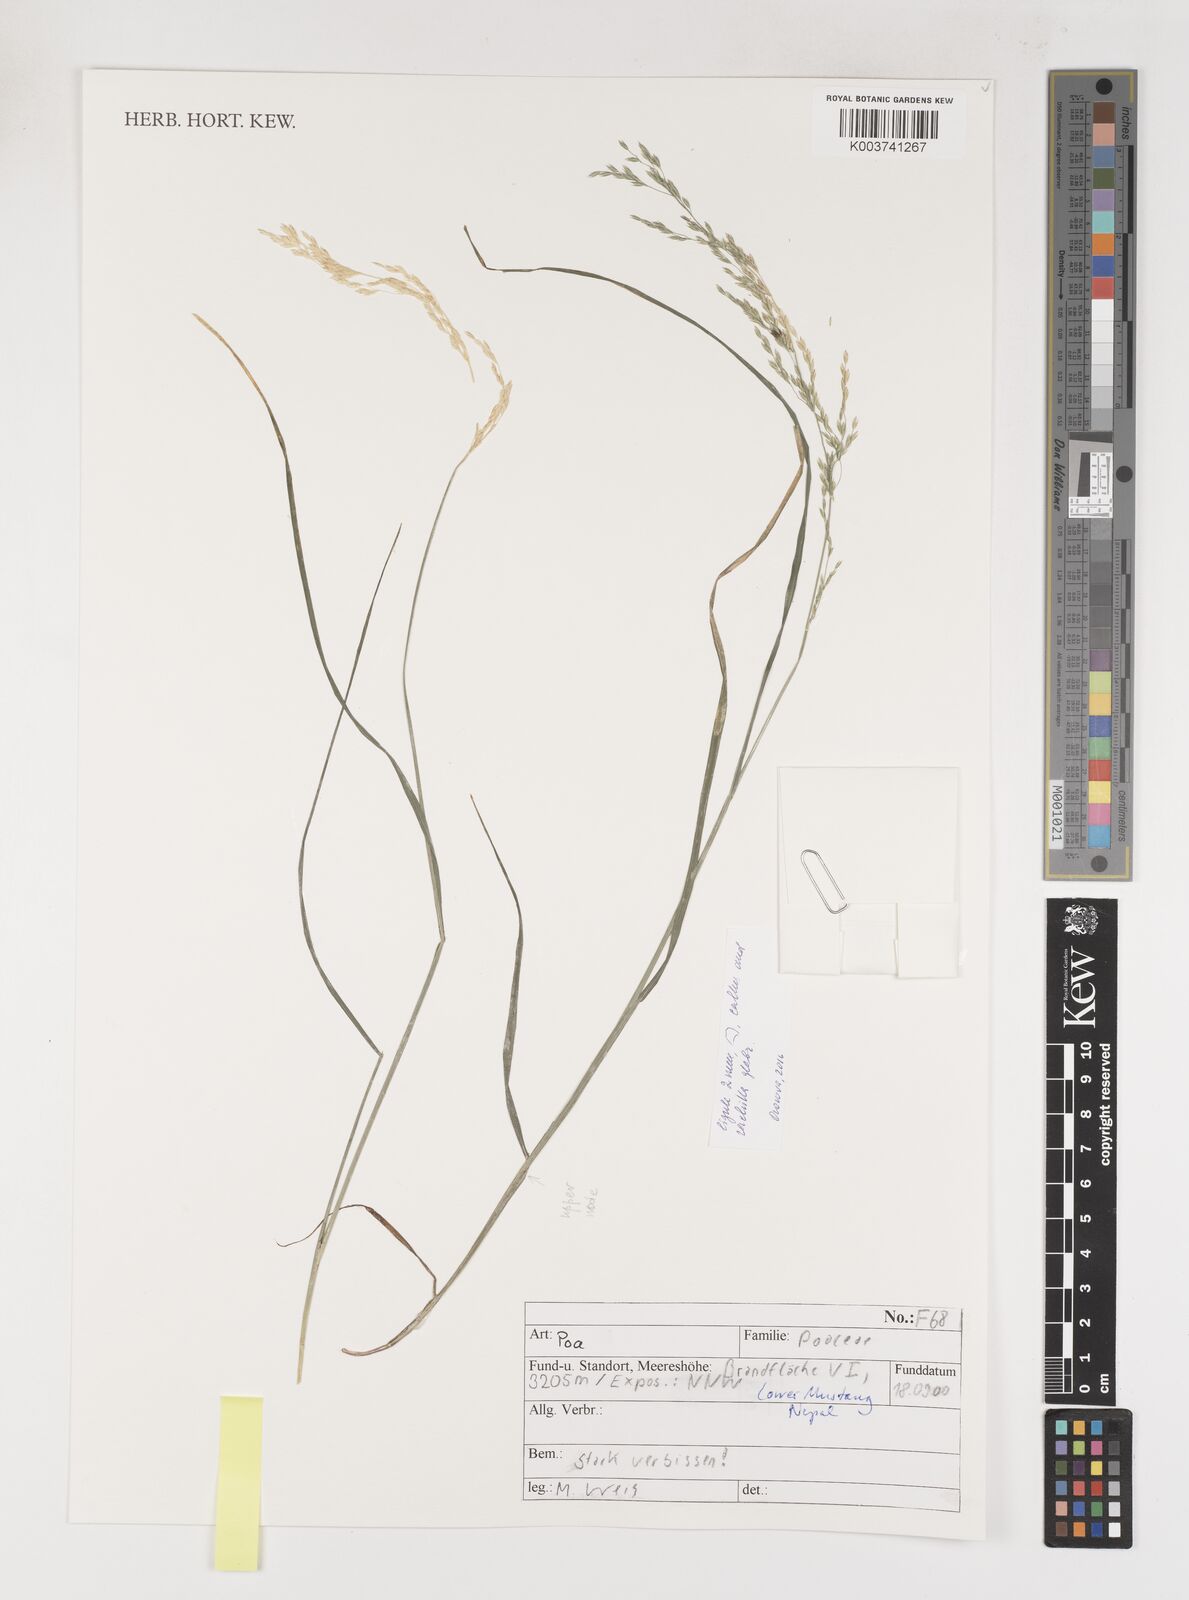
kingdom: Plantae
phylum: Tracheophyta
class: Liliopsida
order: Poales
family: Poaceae
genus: Poa
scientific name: Poa
